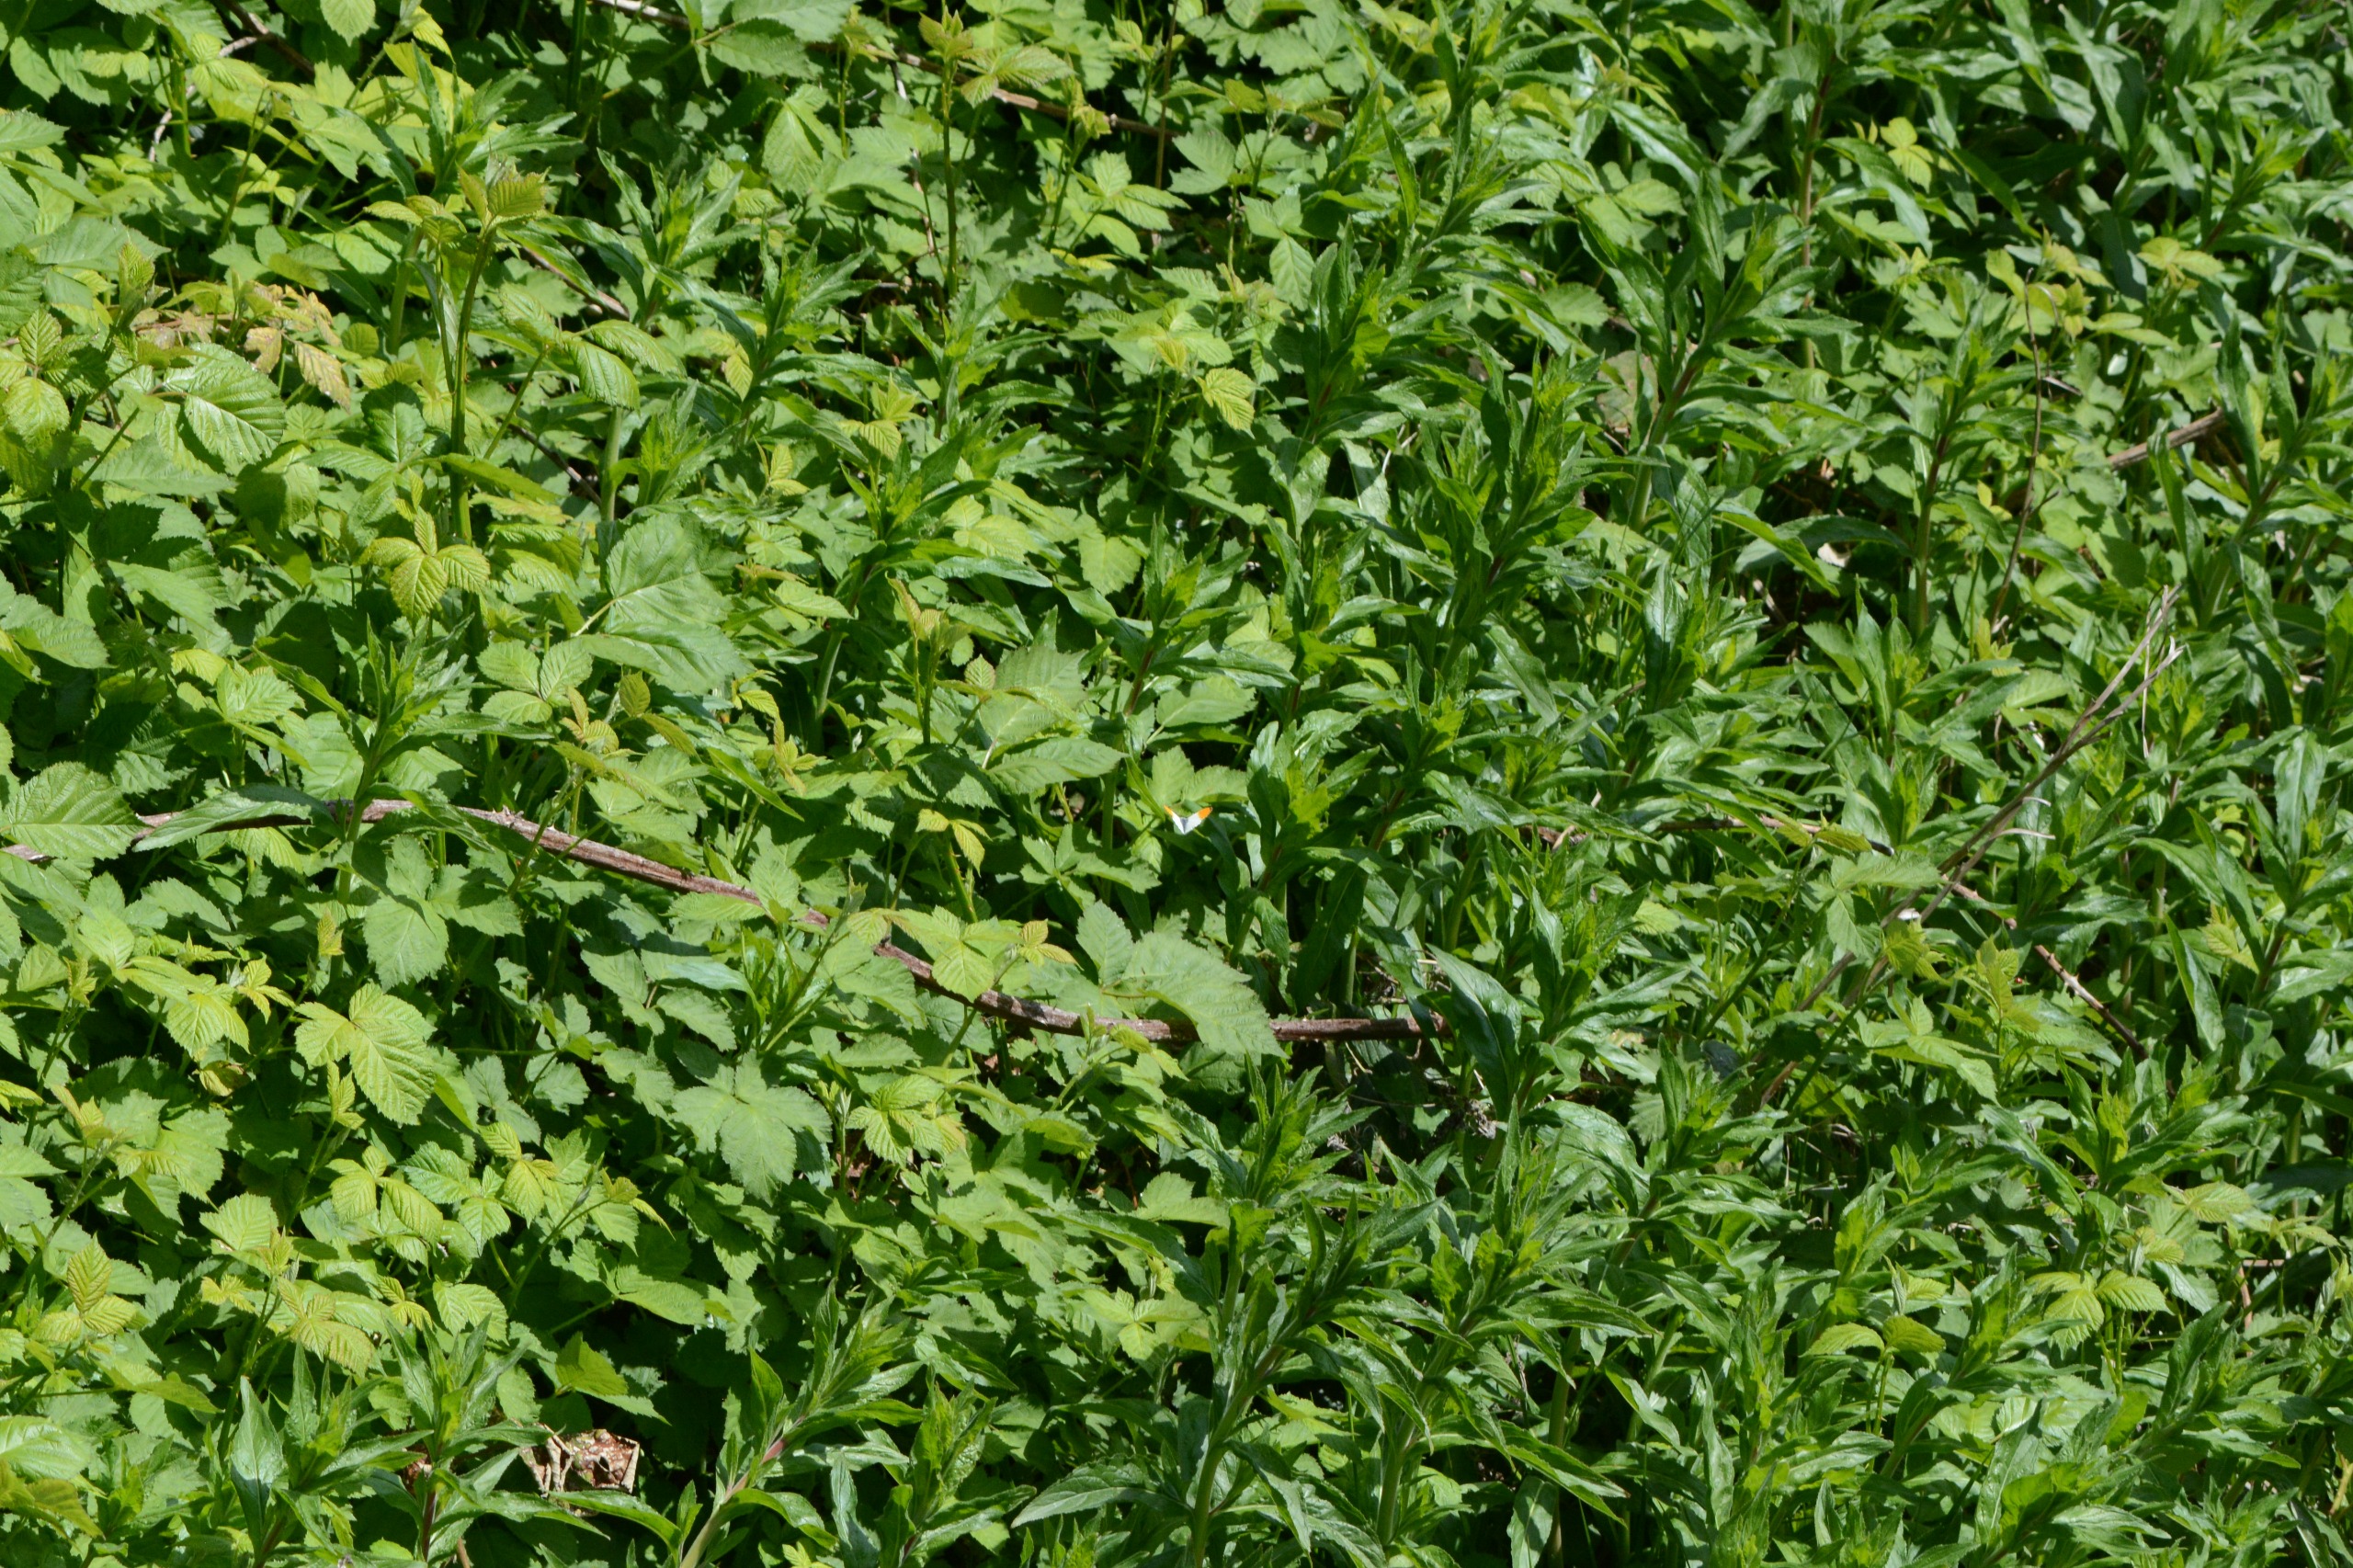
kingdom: Animalia
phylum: Arthropoda
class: Insecta
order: Lepidoptera
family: Pieridae
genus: Anthocharis
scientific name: Anthocharis cardamines
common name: Aurora
